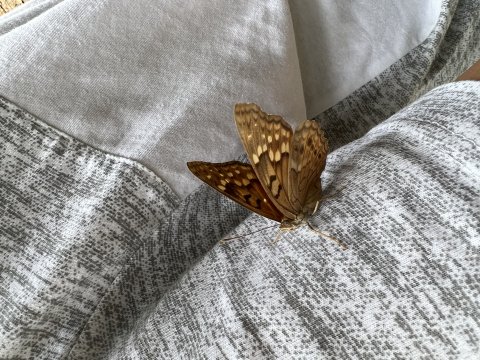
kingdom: Animalia
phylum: Arthropoda
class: Insecta
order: Lepidoptera
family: Nymphalidae
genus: Asterocampa
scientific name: Asterocampa clyton
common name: Tawny Emperor
